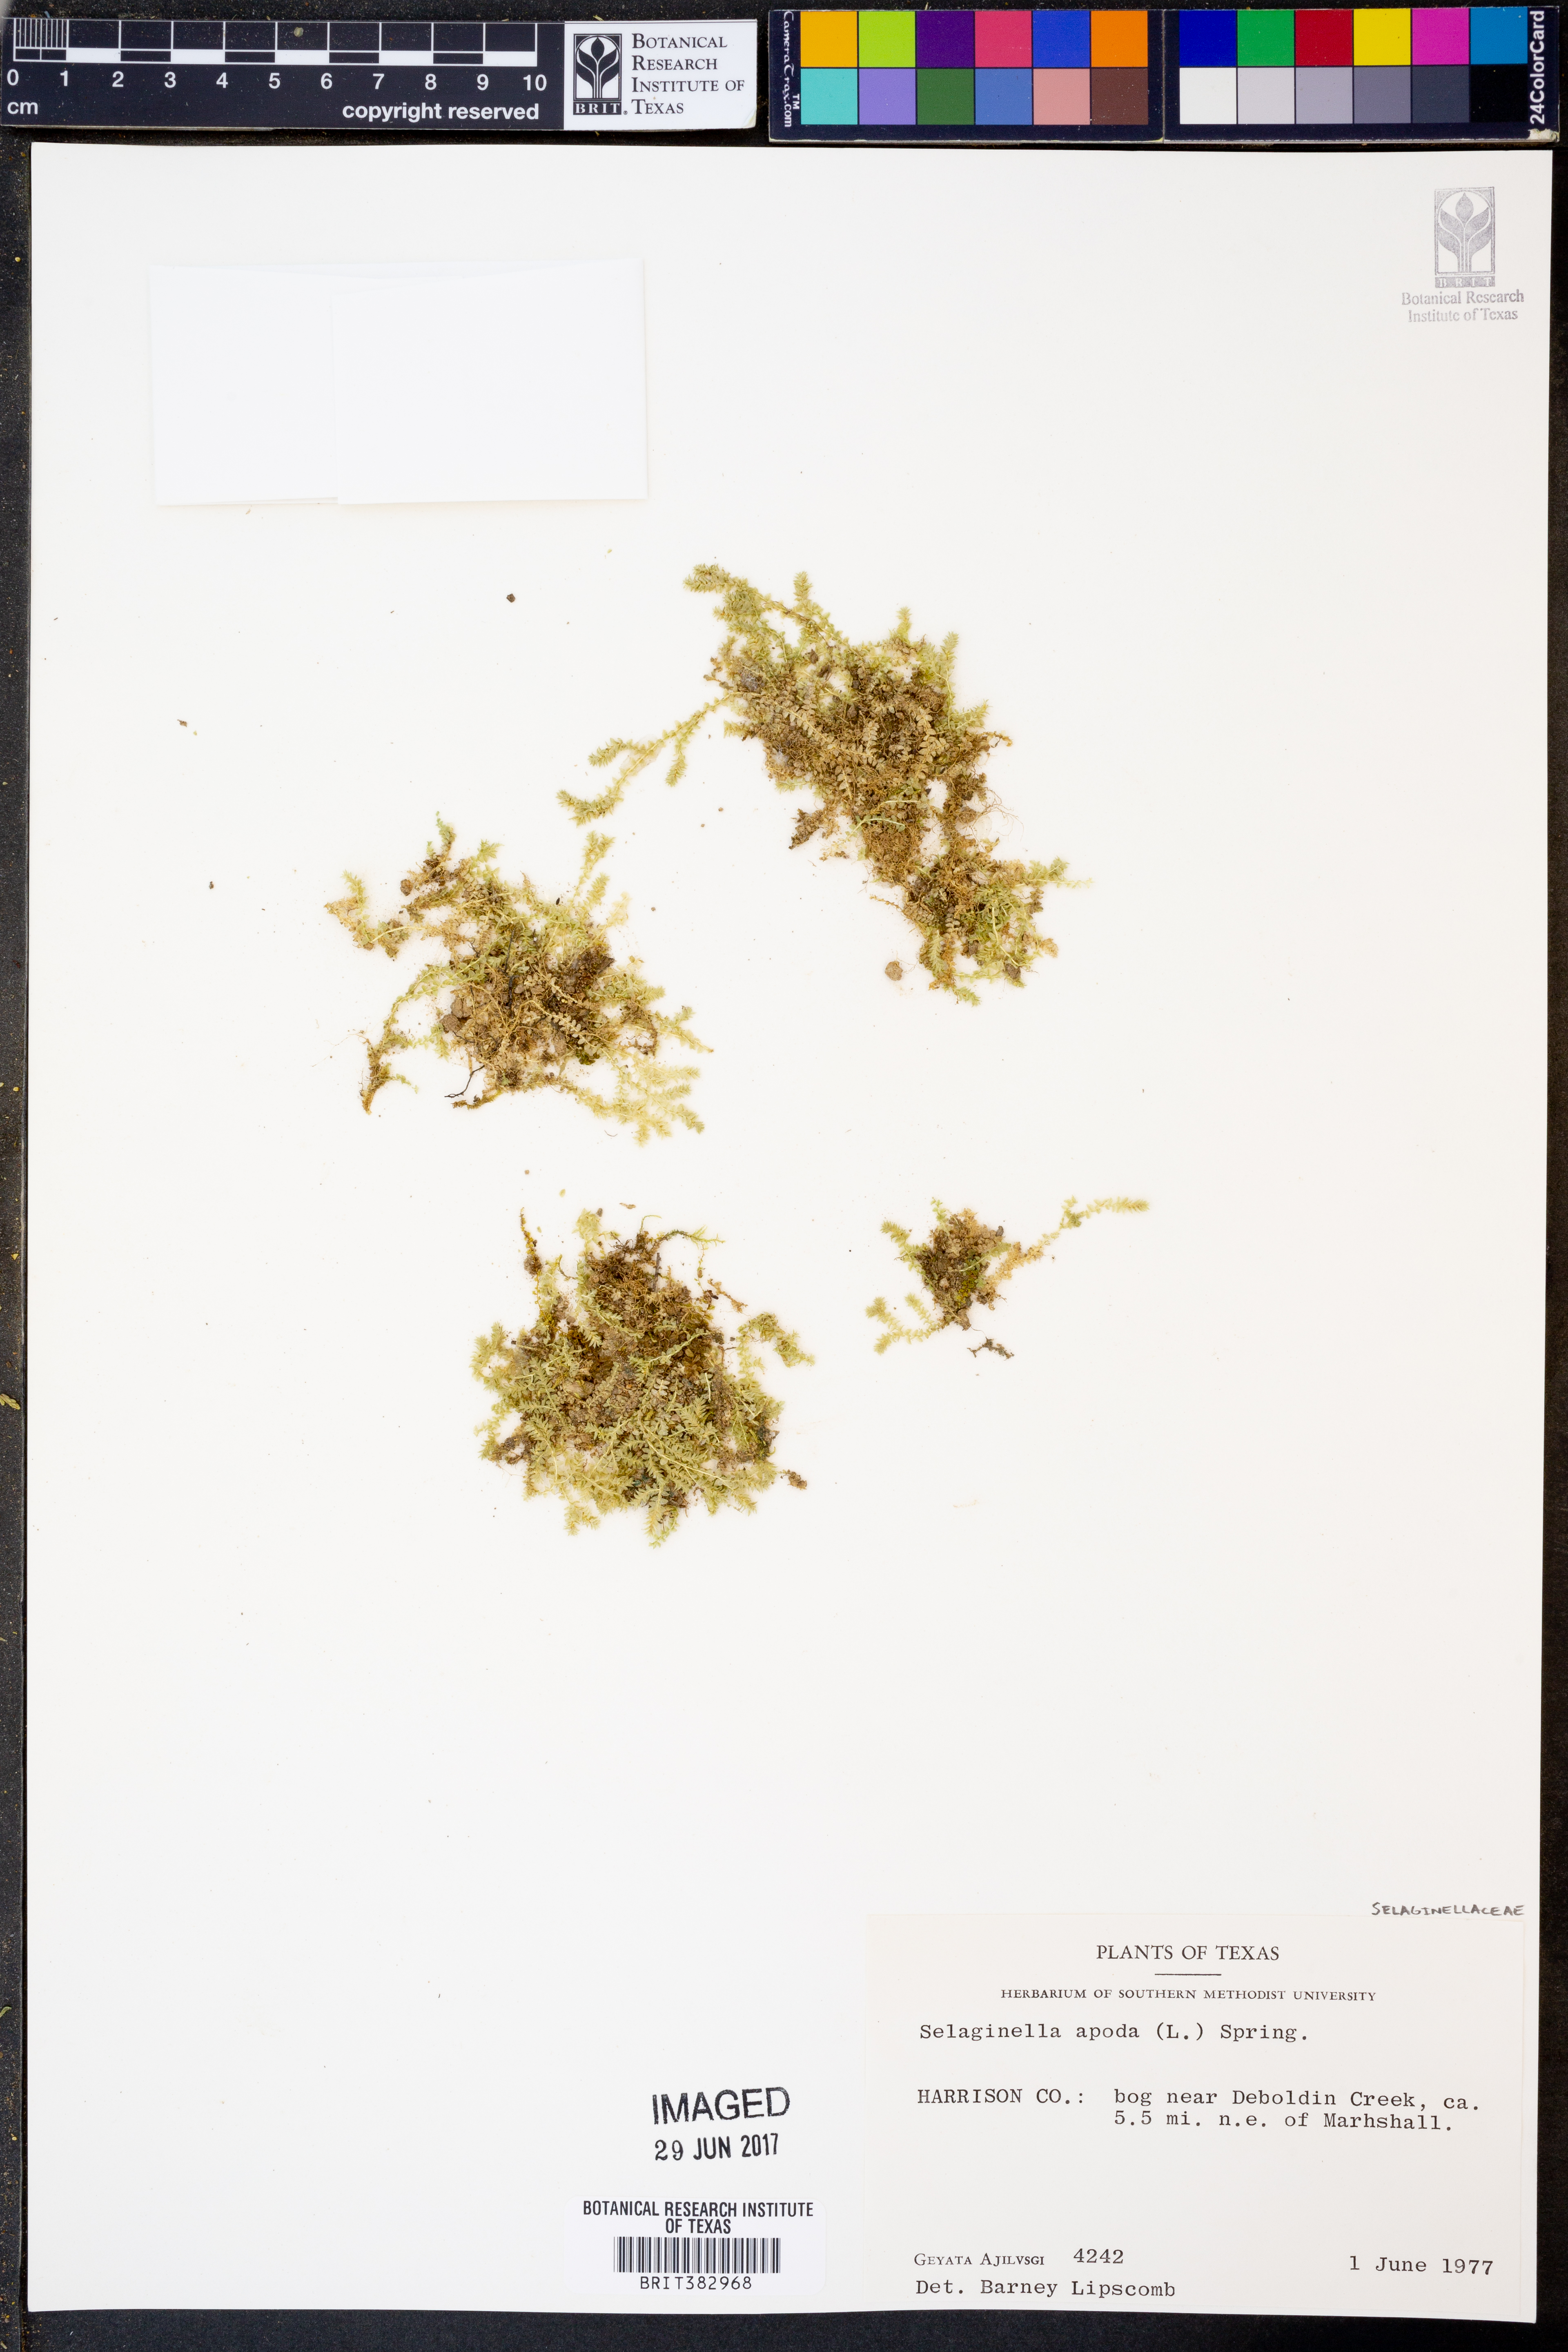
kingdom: Plantae
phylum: Tracheophyta
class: Lycopodiopsida
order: Selaginellales
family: Selaginellaceae
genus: Selaginella
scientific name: Selaginella apoda
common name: Creeping spikemoss
